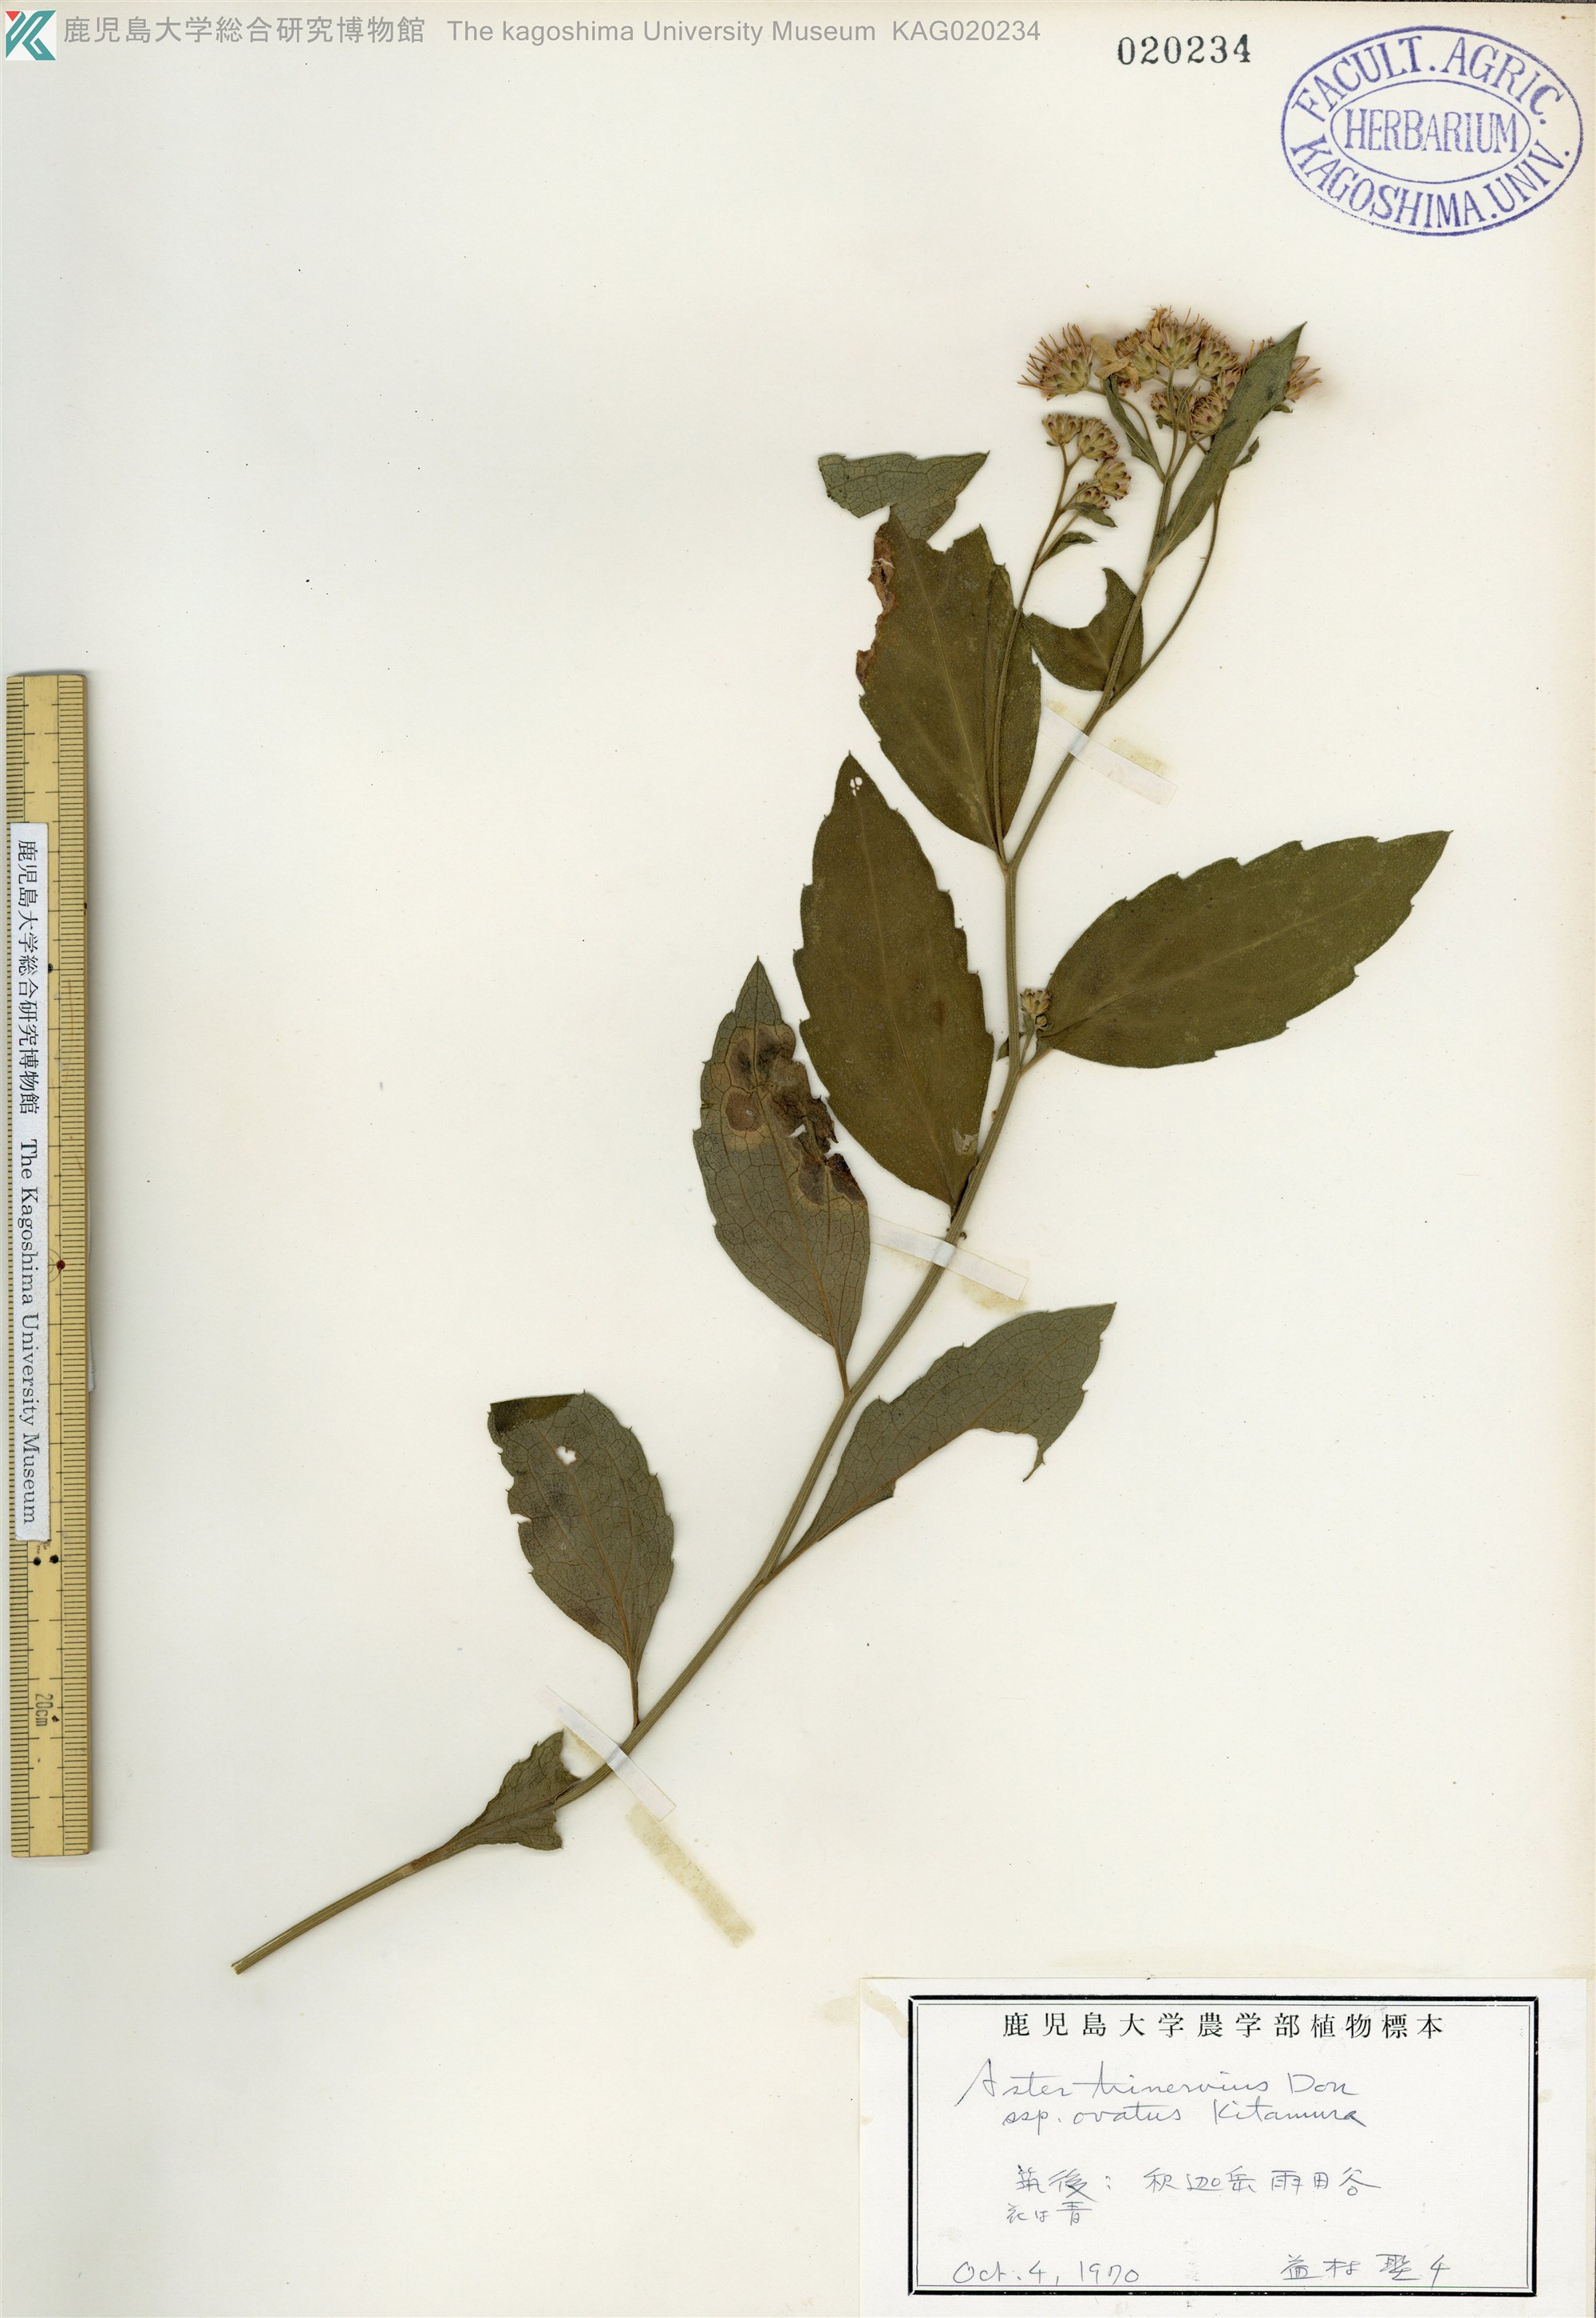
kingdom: Plantae
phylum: Tracheophyta
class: Magnoliopsida
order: Asterales
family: Asteraceae
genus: Aster
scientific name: Aster microcephalus
